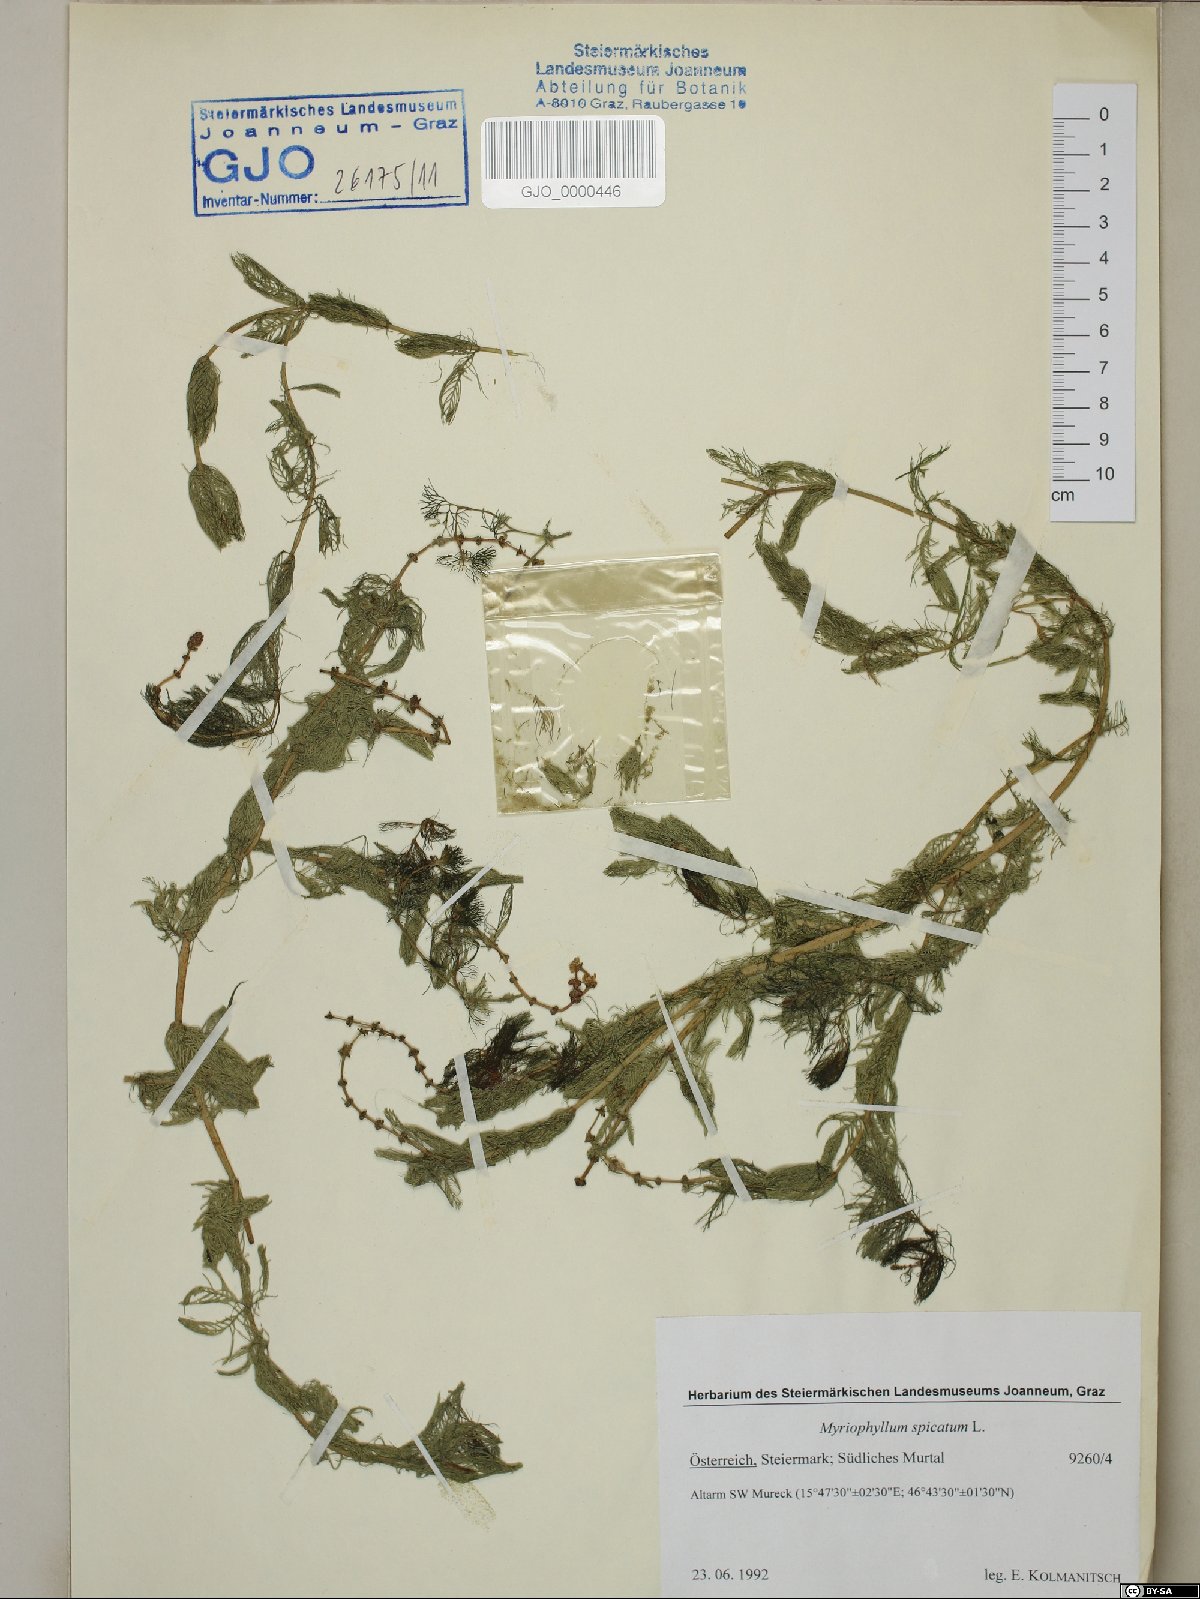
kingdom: Plantae
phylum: Tracheophyta
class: Magnoliopsida
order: Saxifragales
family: Haloragaceae
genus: Myriophyllum
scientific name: Myriophyllum spicatum
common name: Spiked water-milfoil
